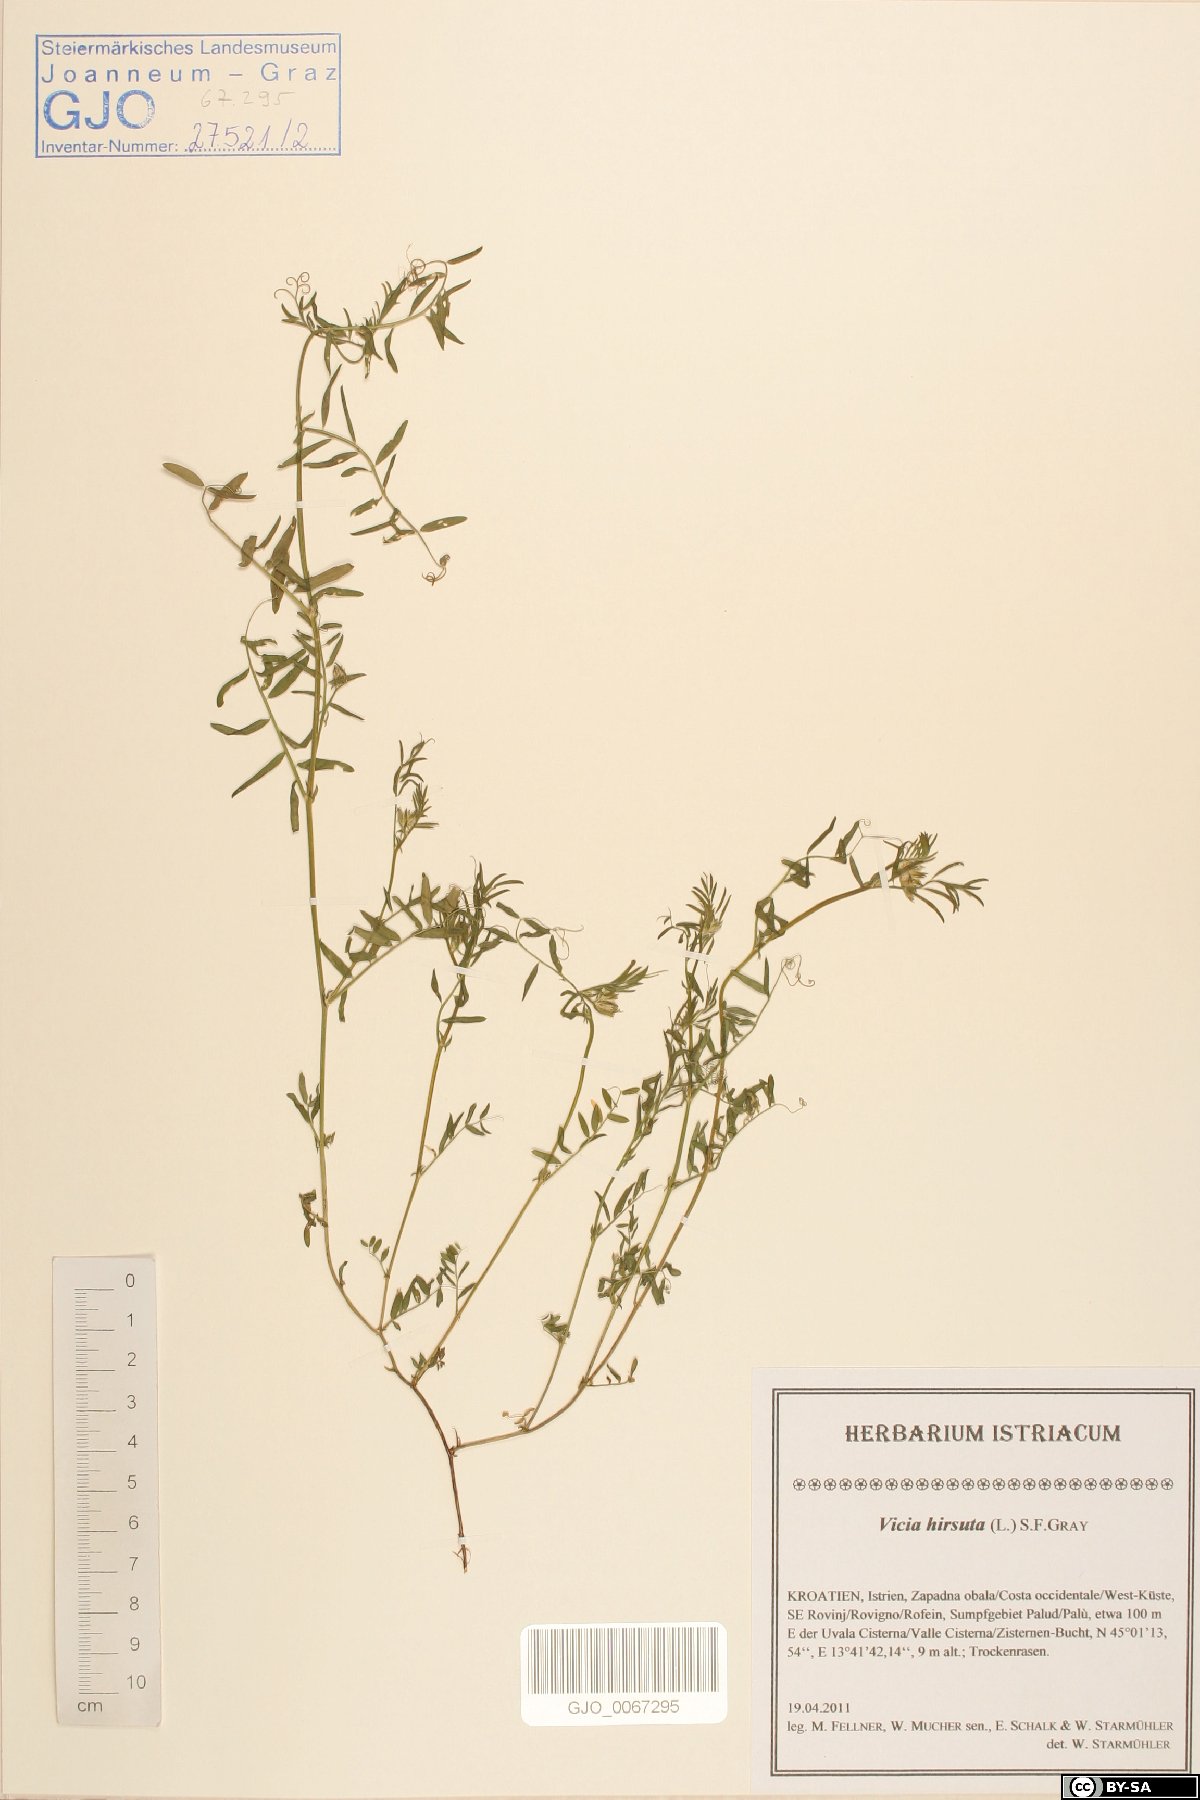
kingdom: Plantae
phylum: Tracheophyta
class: Magnoliopsida
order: Fabales
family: Fabaceae
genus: Vicia
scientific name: Vicia hirsuta
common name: Tiny vetch
